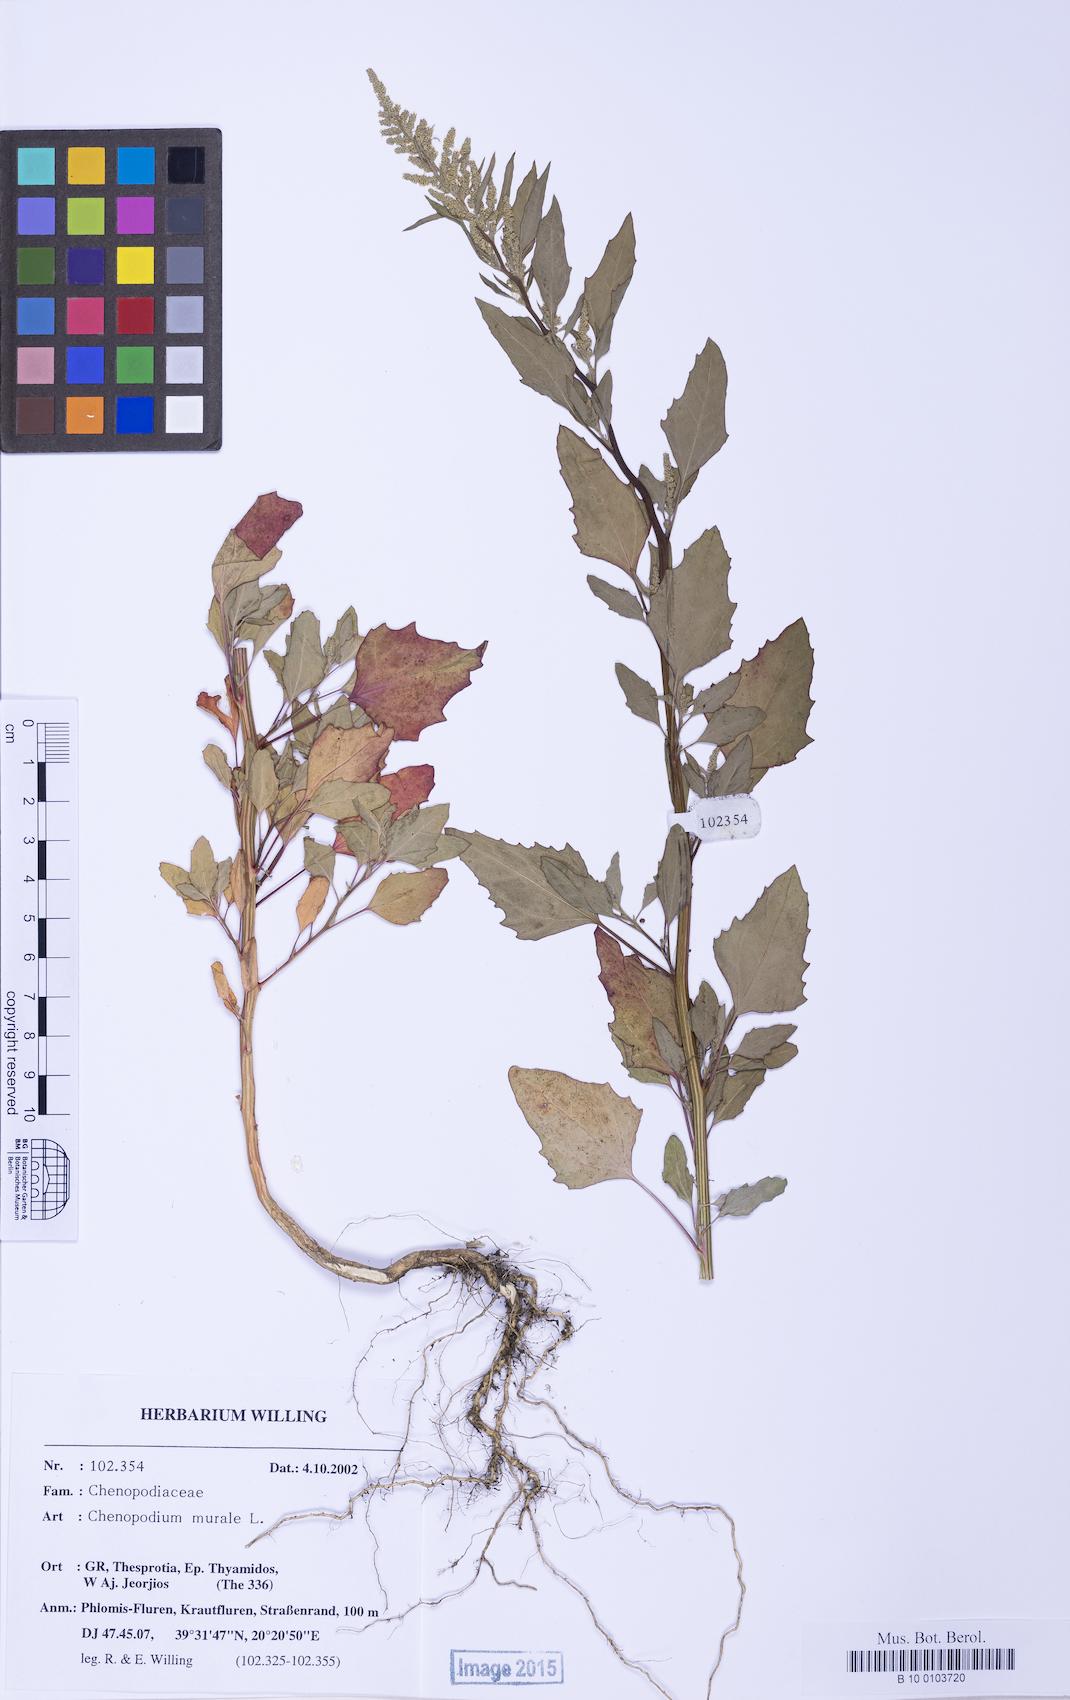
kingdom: Plantae
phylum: Tracheophyta
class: Magnoliopsida
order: Caryophyllales
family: Amaranthaceae
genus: Chenopodium
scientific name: Chenopodium betaceum
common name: Striped goosefoot
